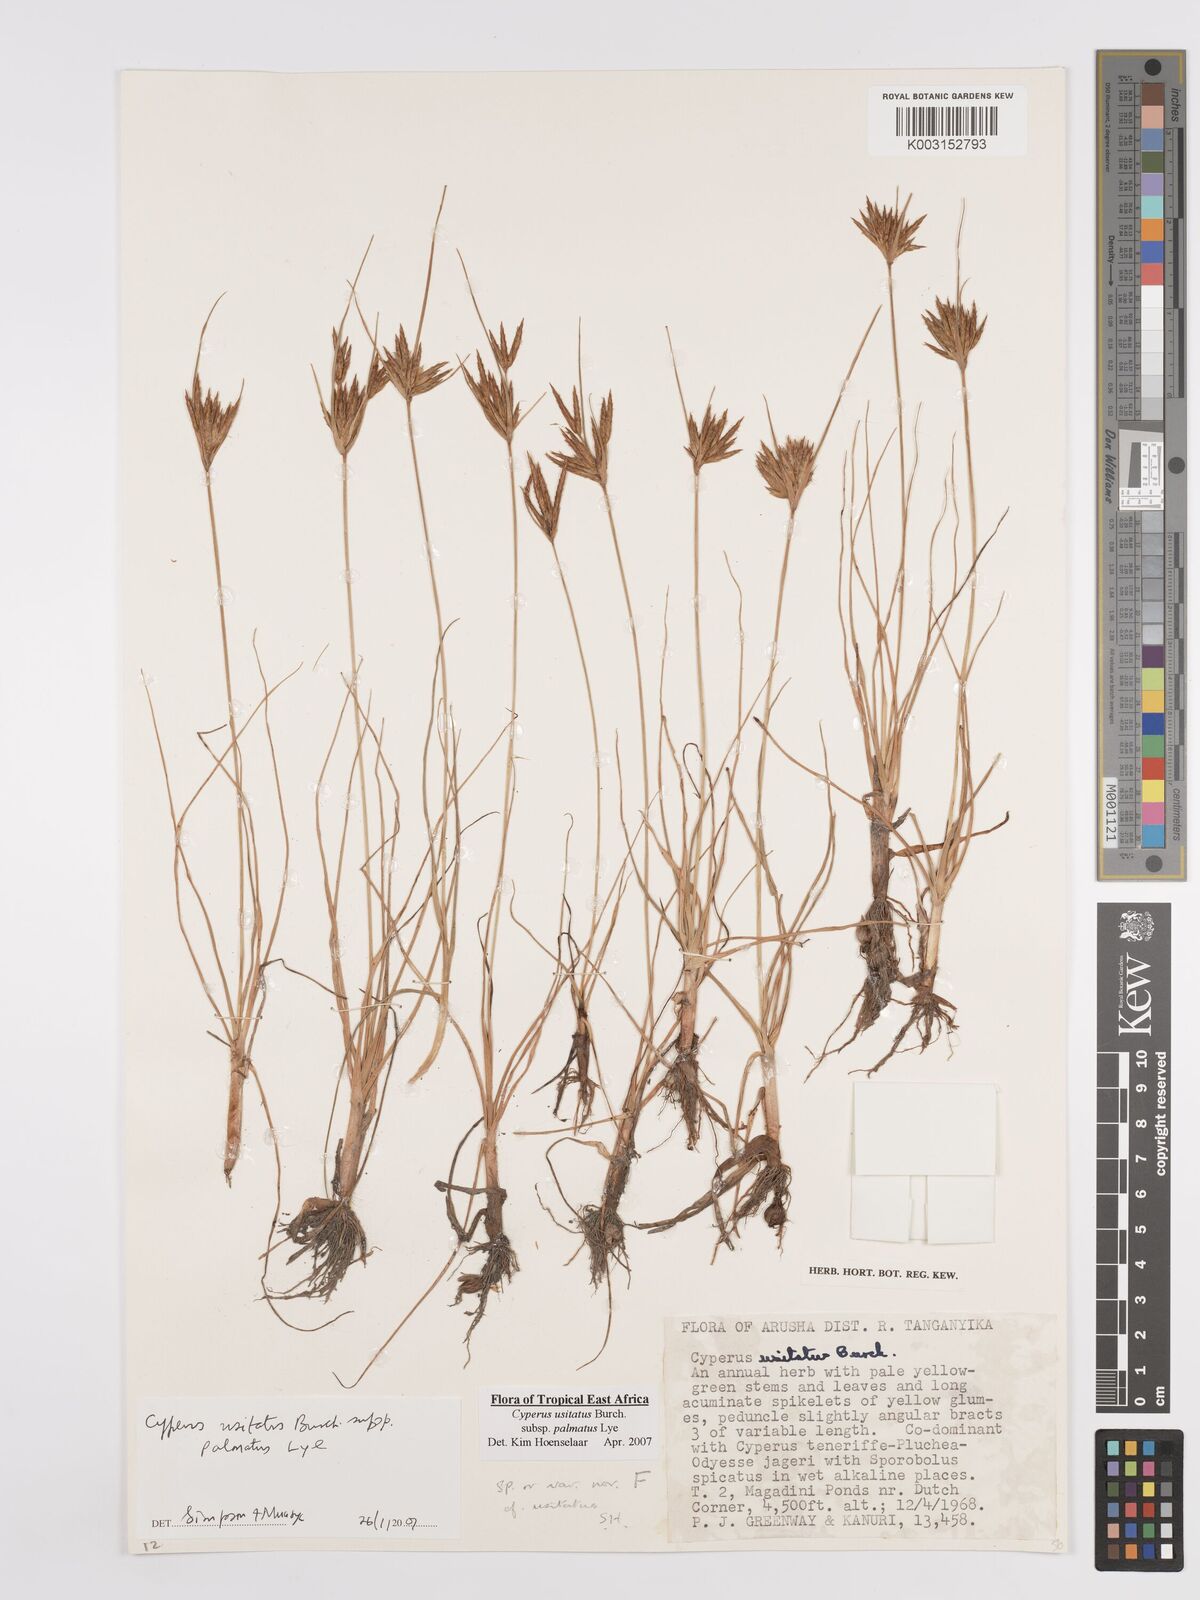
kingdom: Plantae
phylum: Tracheophyta
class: Liliopsida
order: Poales
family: Cyperaceae
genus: Cyperus
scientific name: Cyperus palmatus
